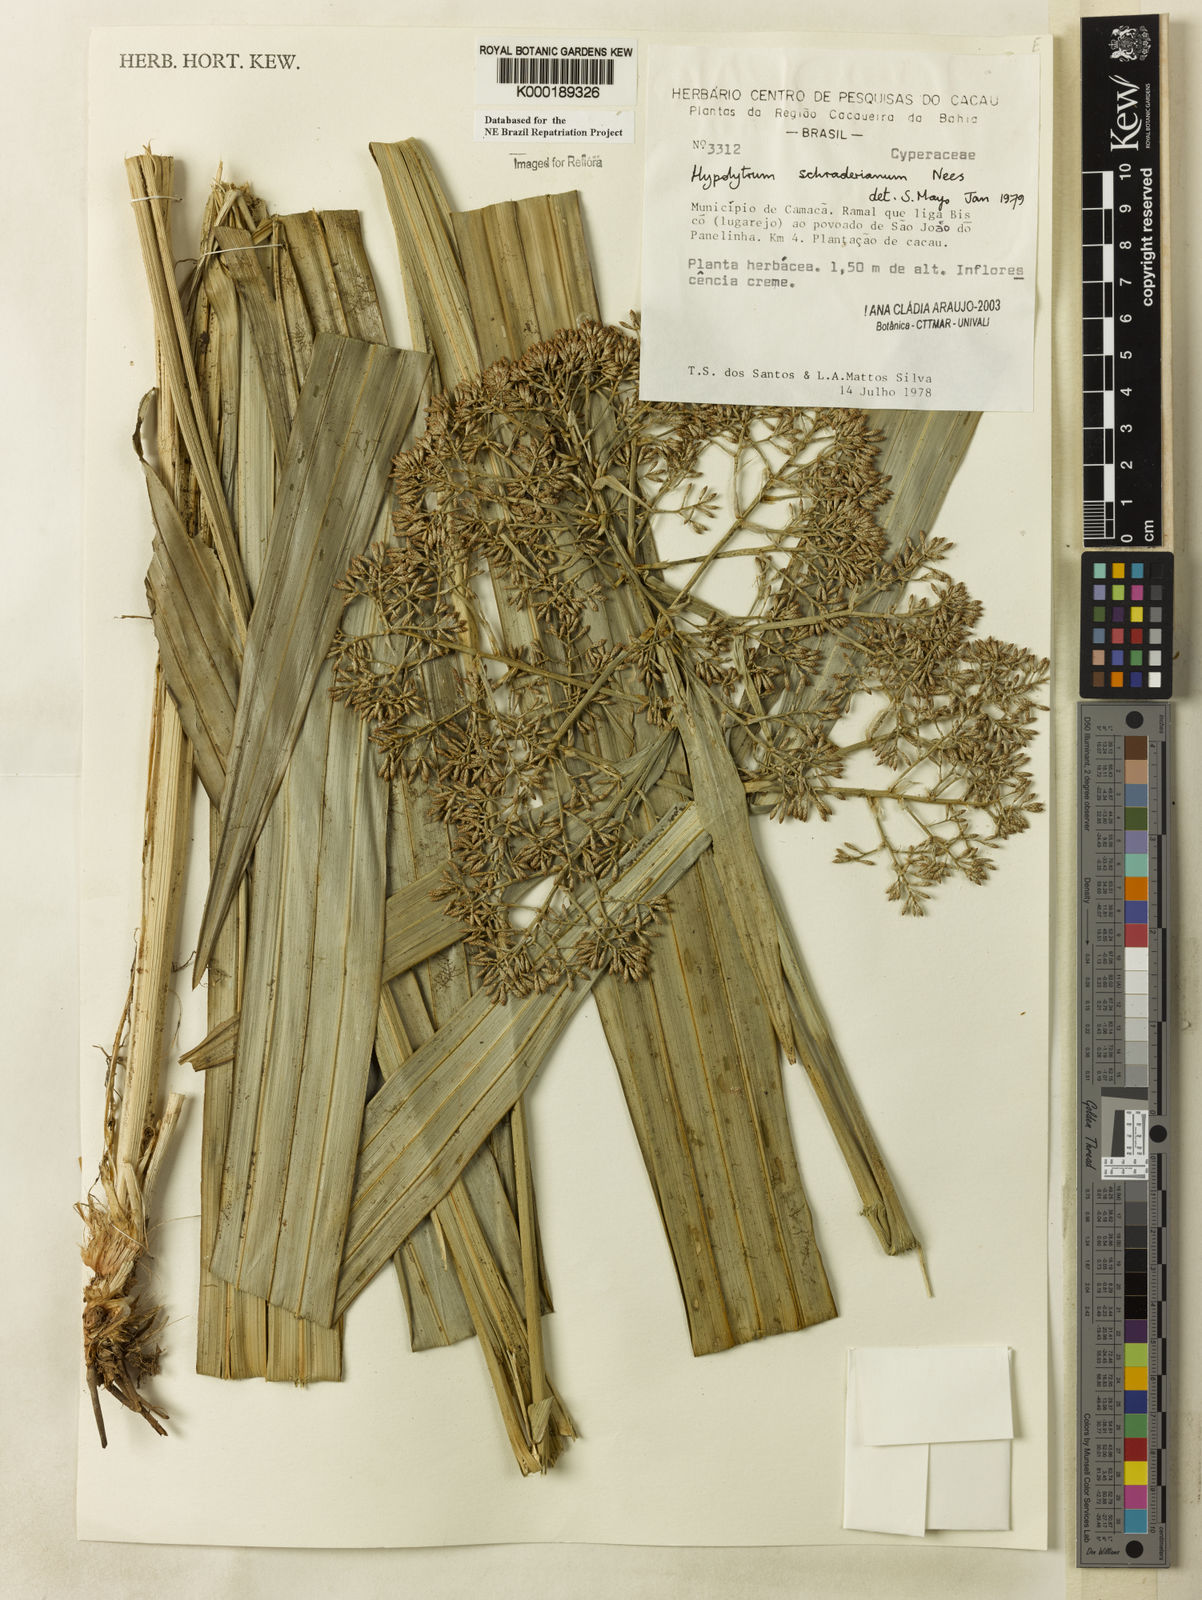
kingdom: Plantae
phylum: Tracheophyta
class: Liliopsida
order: Poales
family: Cyperaceae
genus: Hypolytrum
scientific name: Hypolytrum schraderianum
